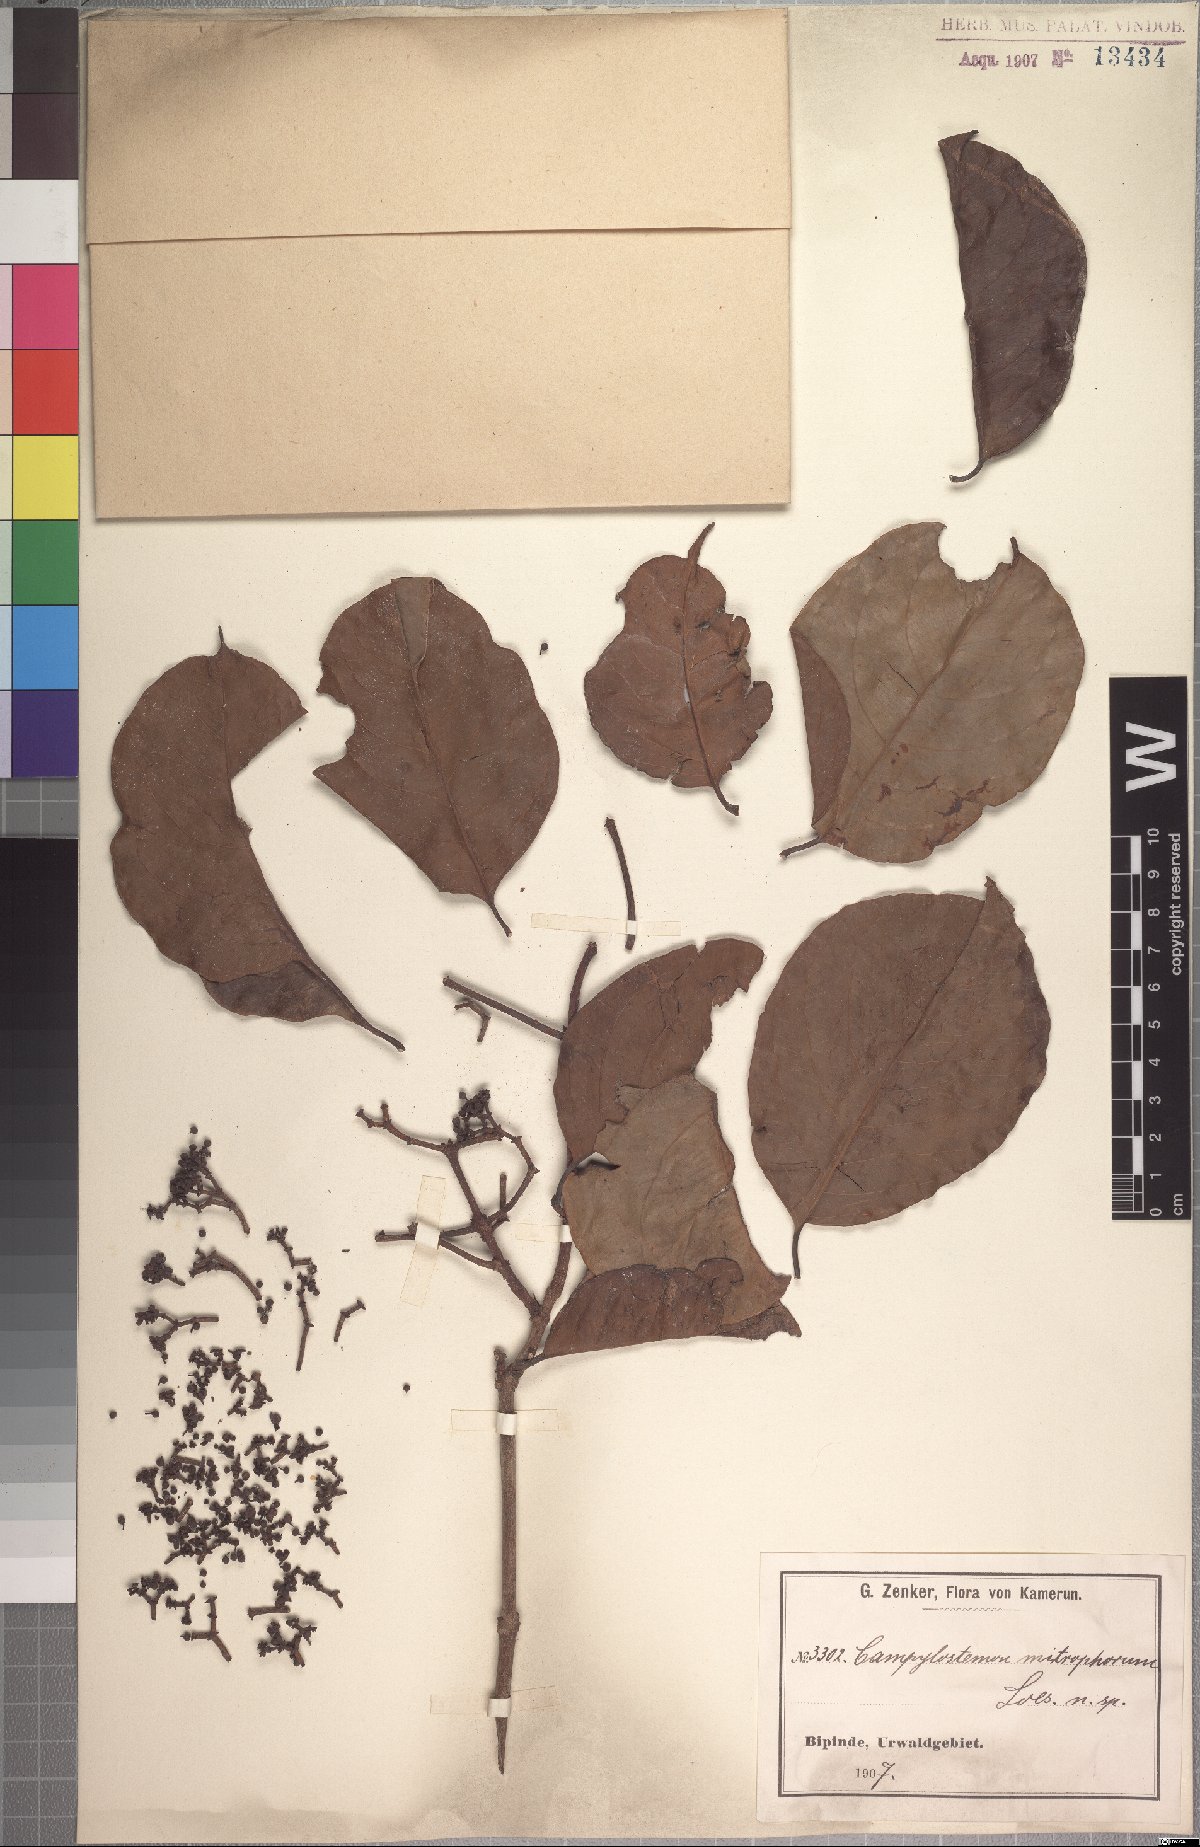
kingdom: Plantae
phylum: Tracheophyta
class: Magnoliopsida
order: Celastrales
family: Celastraceae
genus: Campylostemon
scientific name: Campylostemon mitophorum
